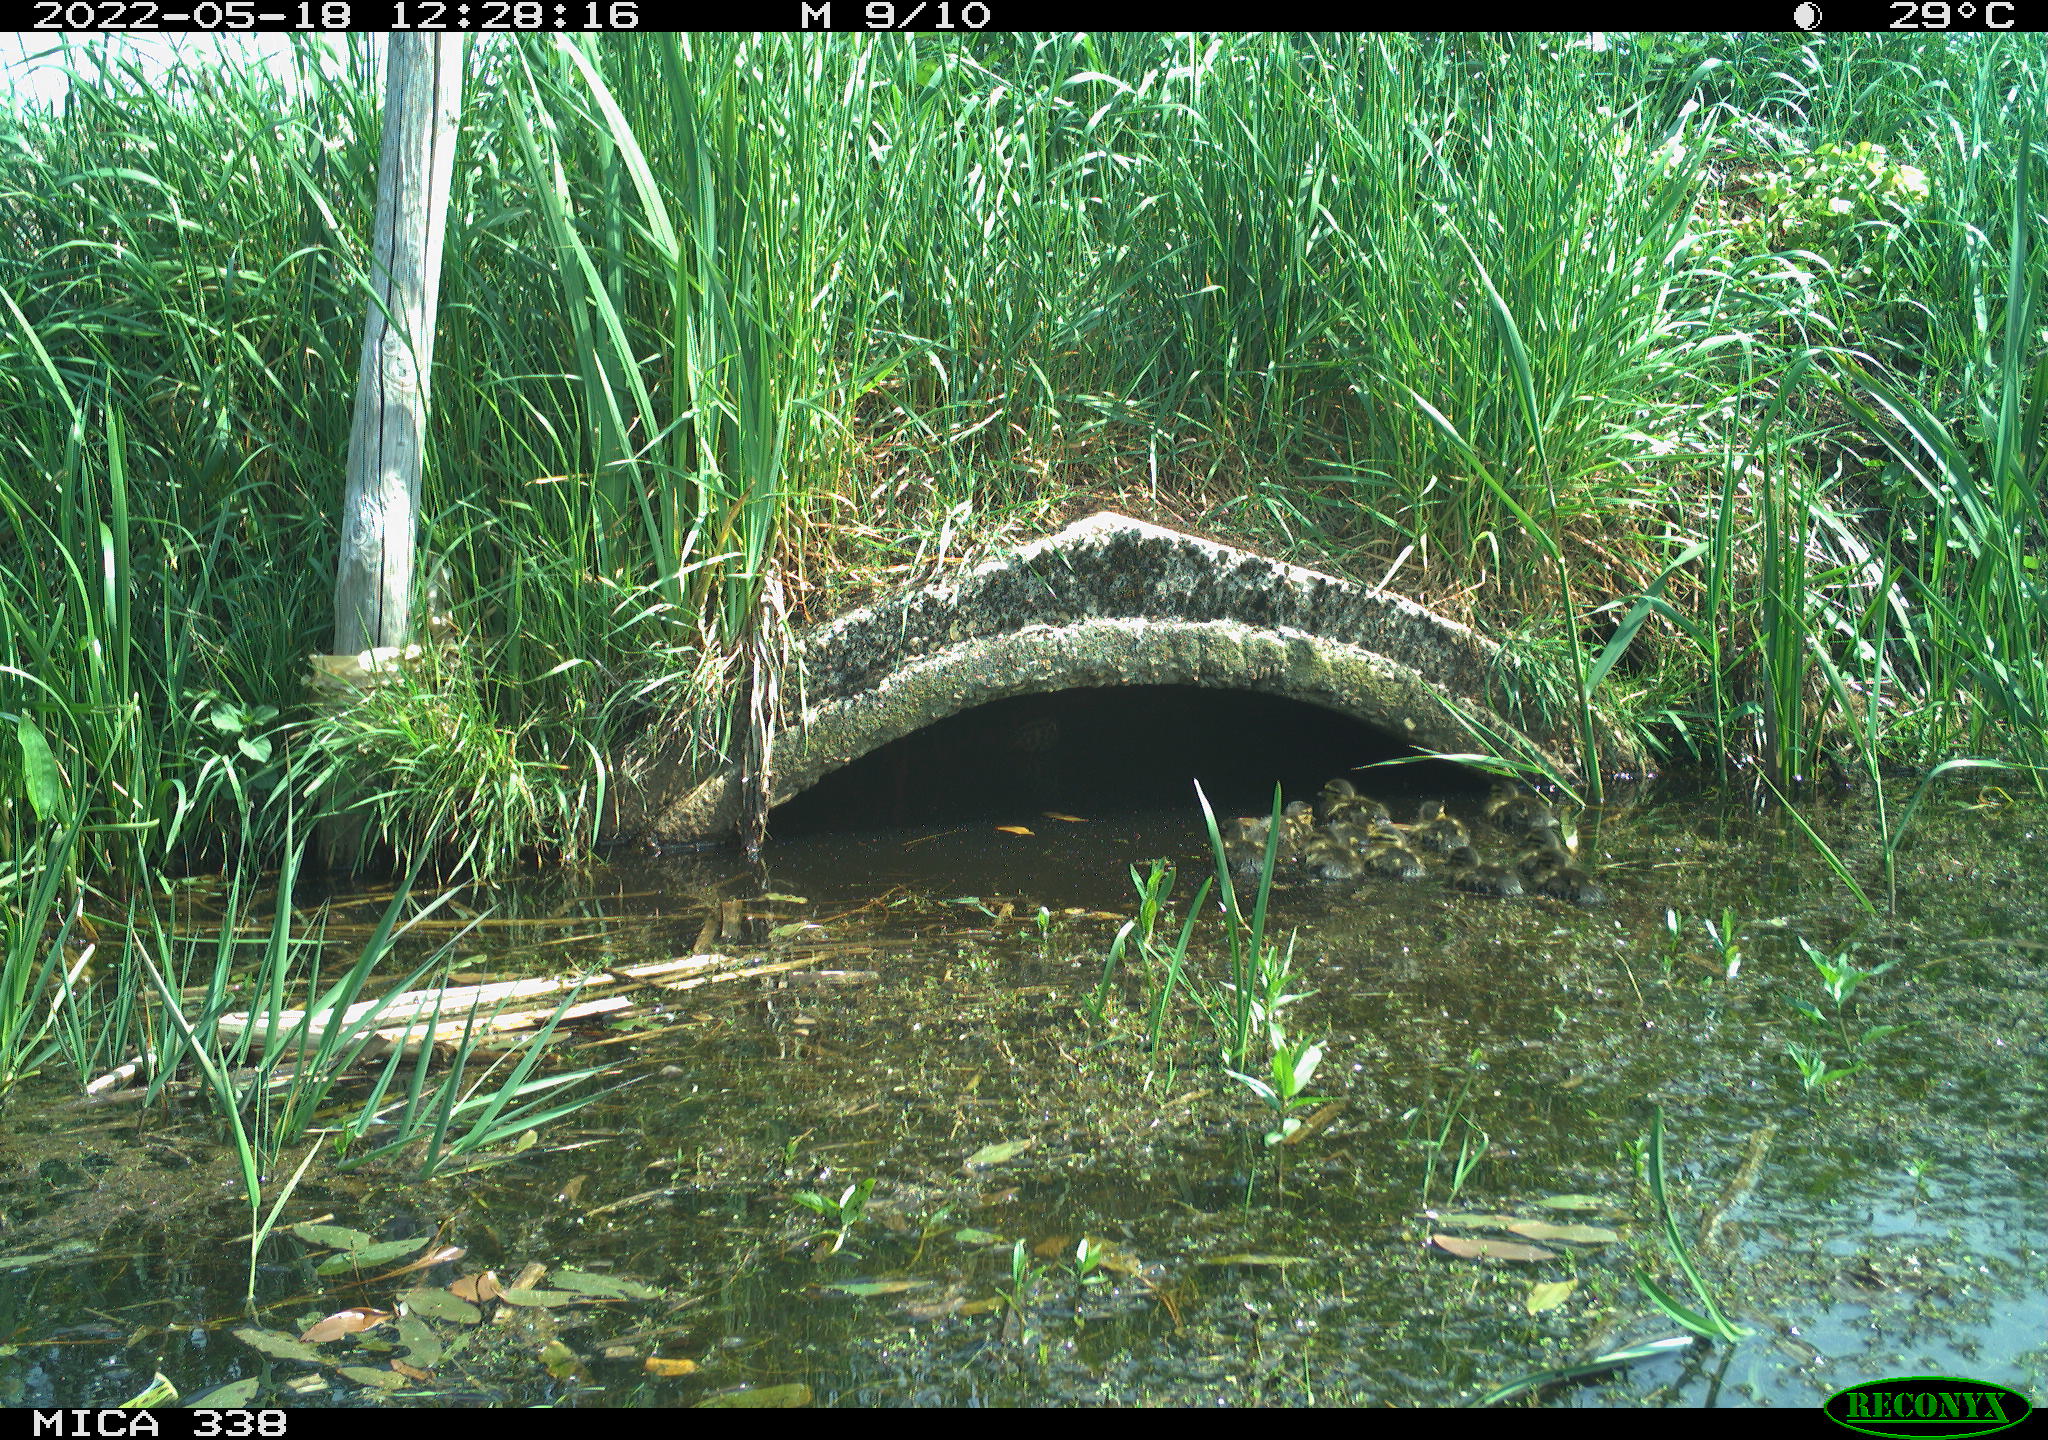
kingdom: Animalia
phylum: Chordata
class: Aves
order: Anseriformes
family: Anatidae
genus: Anas
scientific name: Anas platyrhynchos
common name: Mallard
